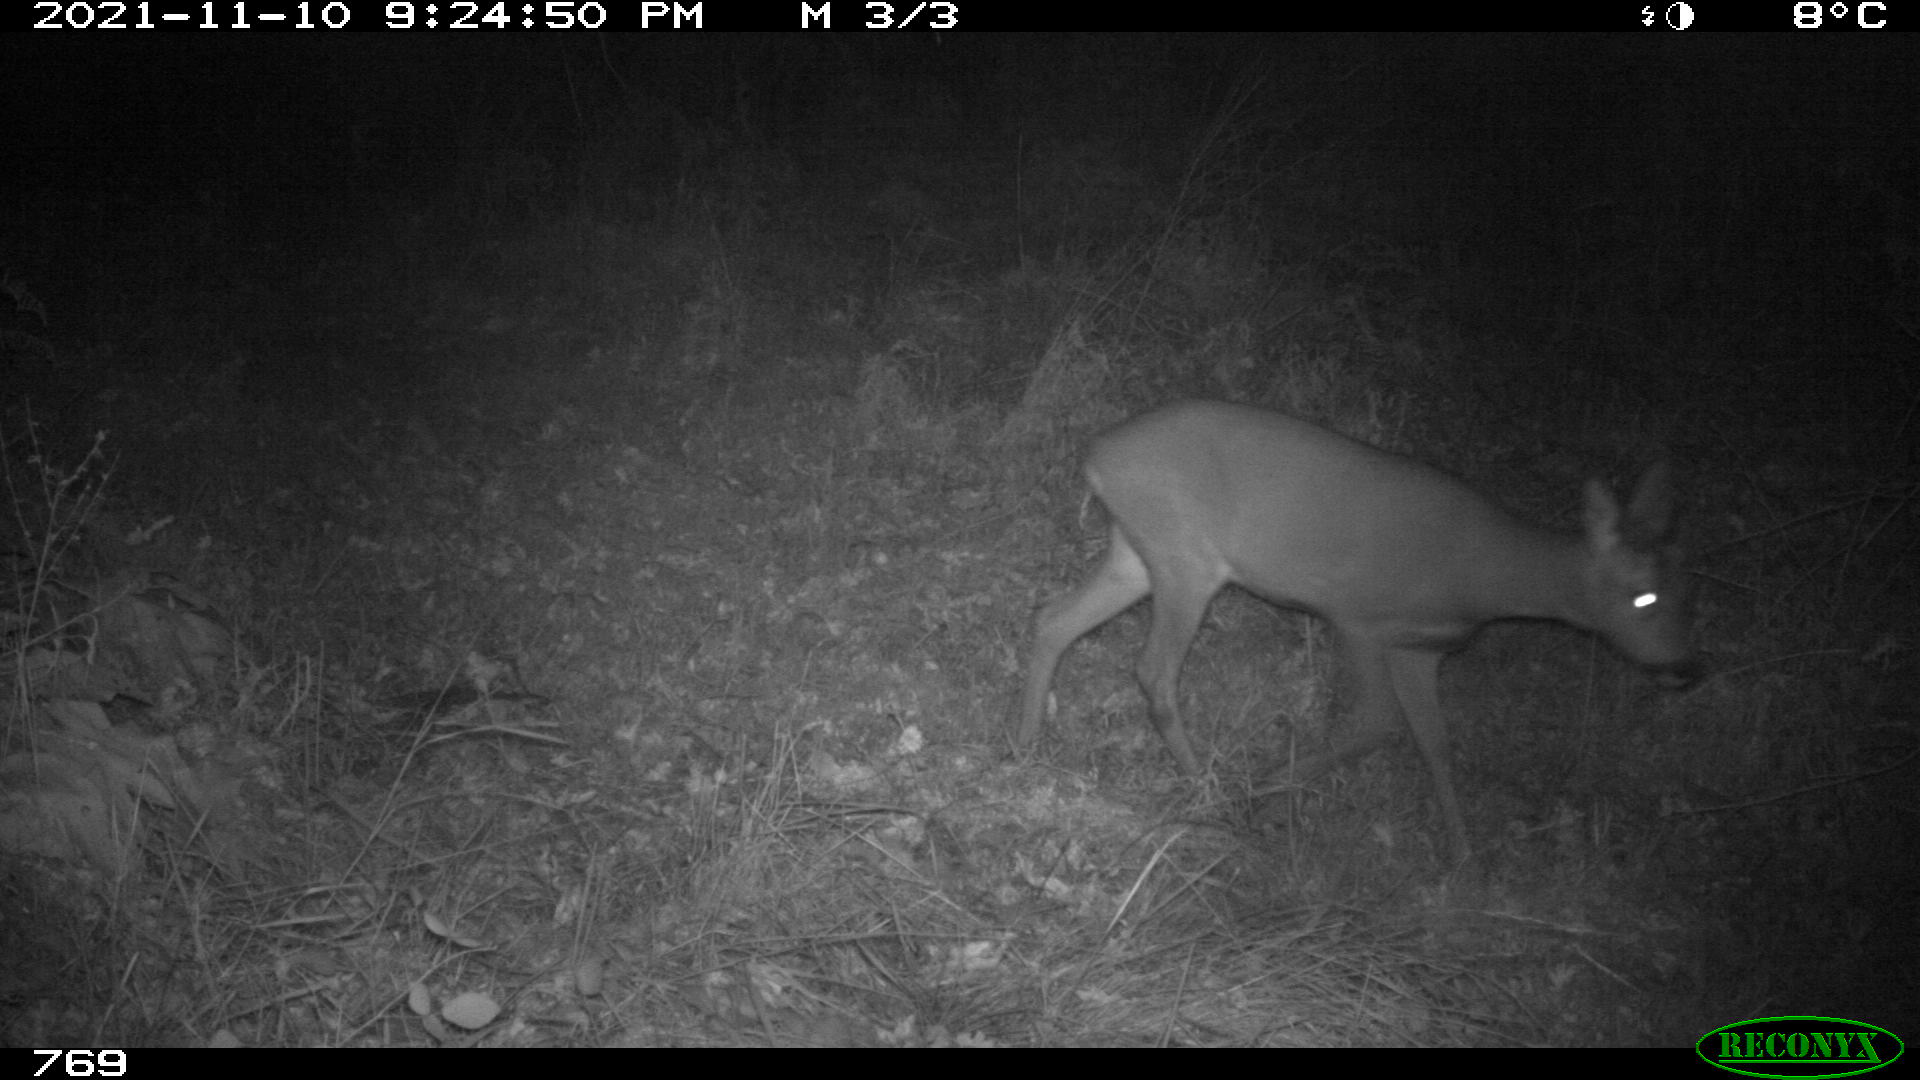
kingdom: Animalia
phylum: Chordata
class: Mammalia
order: Artiodactyla
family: Cervidae
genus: Capreolus
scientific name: Capreolus capreolus
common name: Western roe deer
